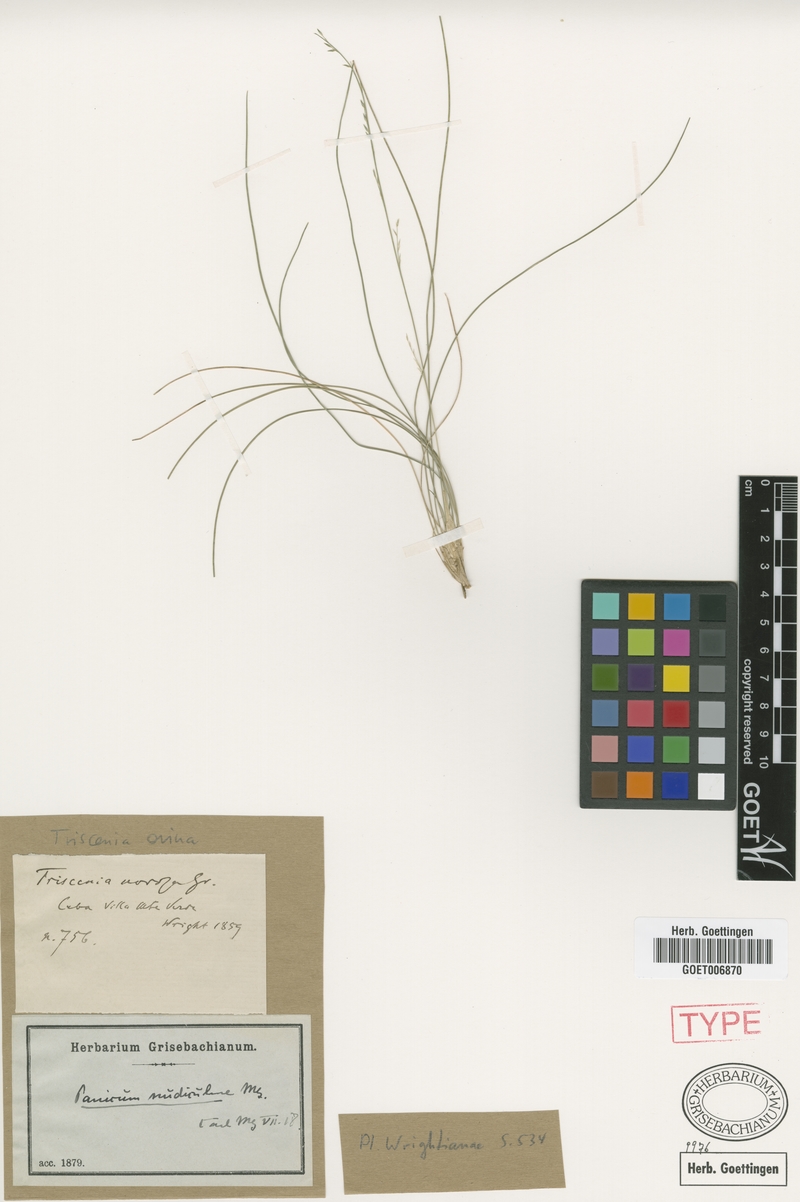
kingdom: Plantae
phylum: Tracheophyta
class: Liliopsida
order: Poales
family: Poaceae
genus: Triscenia
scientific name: Triscenia ovina
